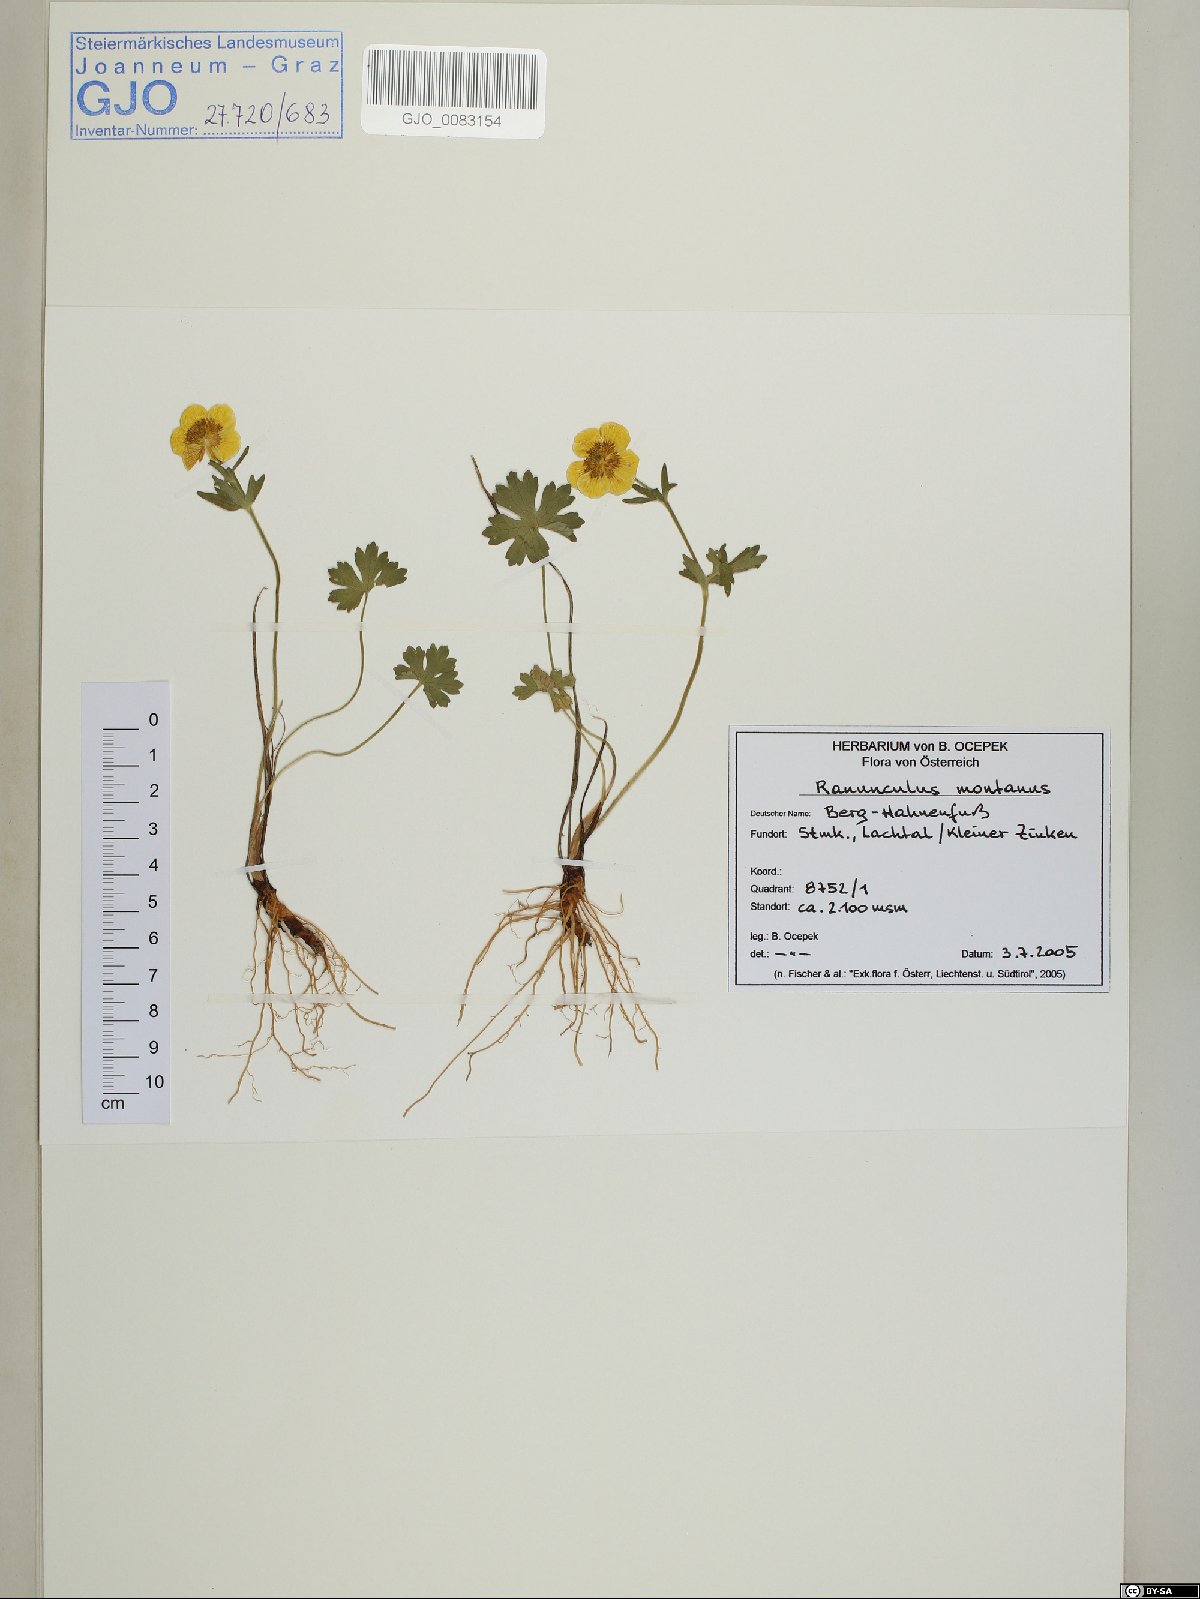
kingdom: Plantae
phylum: Tracheophyta
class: Magnoliopsida
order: Ranunculales
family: Ranunculaceae
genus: Ranunculus
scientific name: Ranunculus montanus
